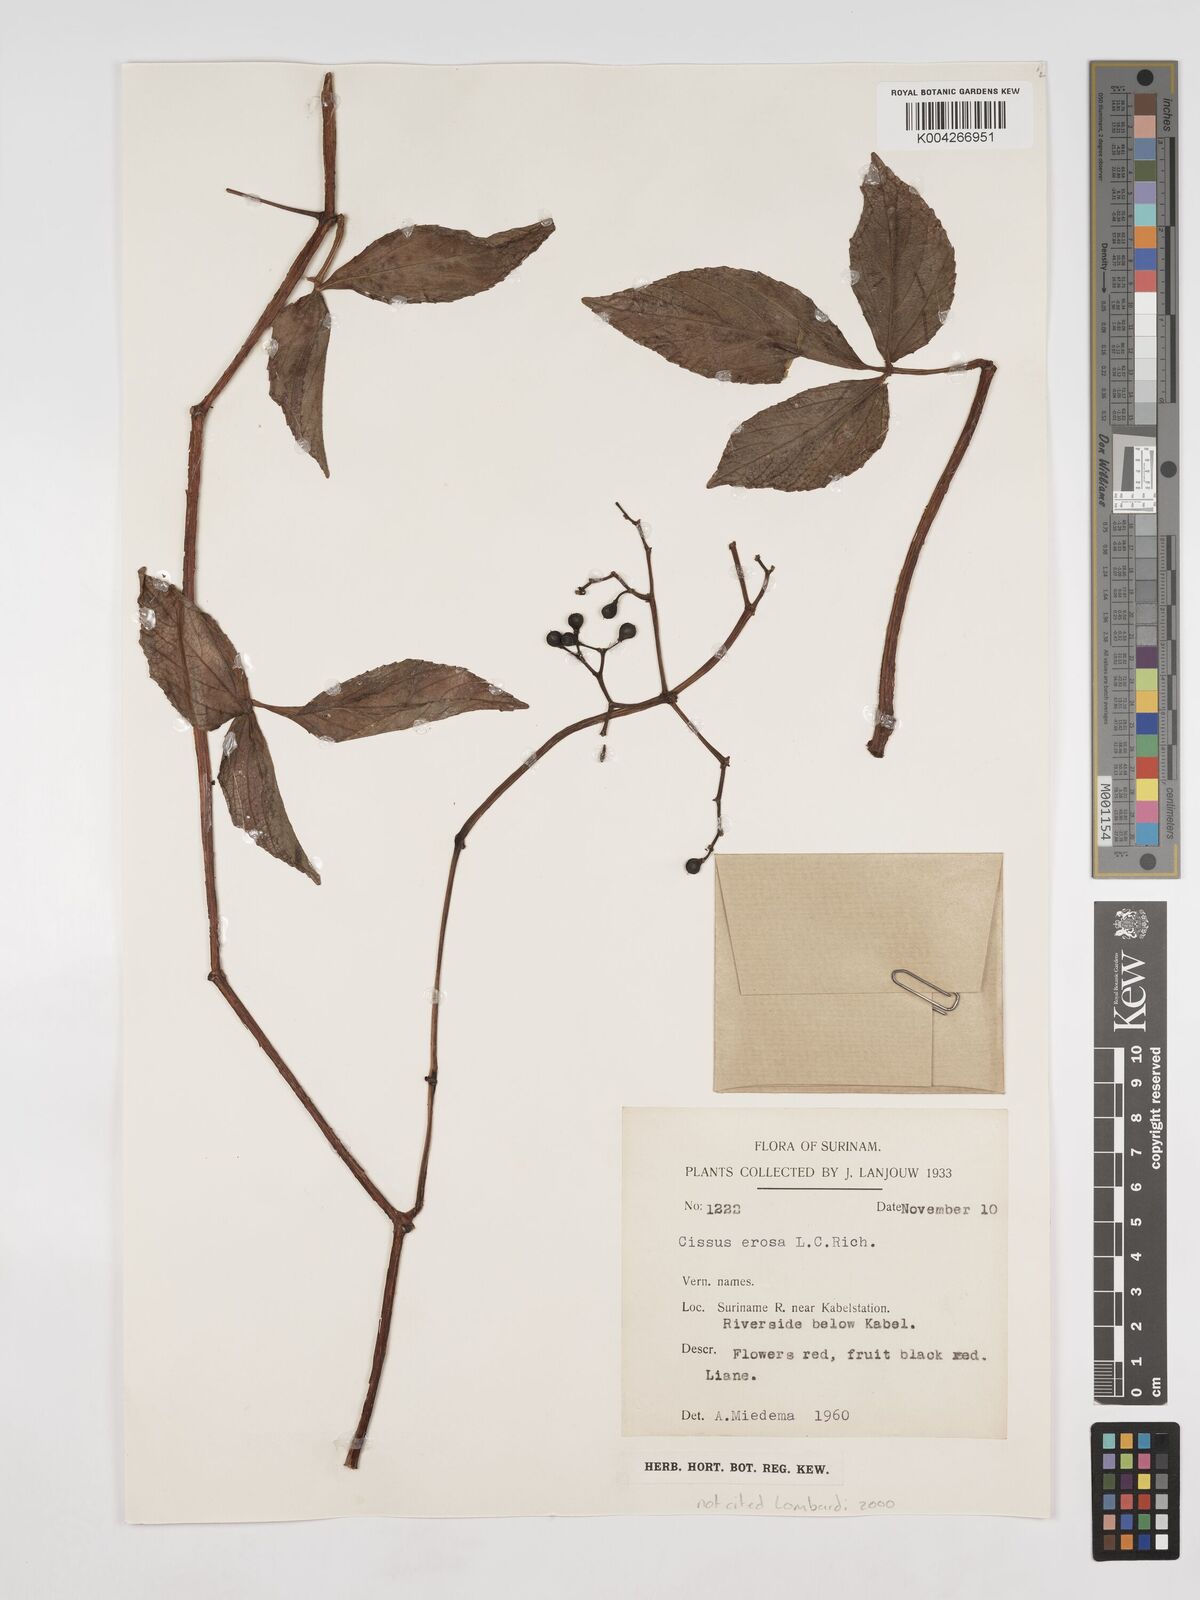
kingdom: Plantae
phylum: Tracheophyta
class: Magnoliopsida
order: Vitales
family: Vitaceae
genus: Cissus
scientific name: Cissus erosa
